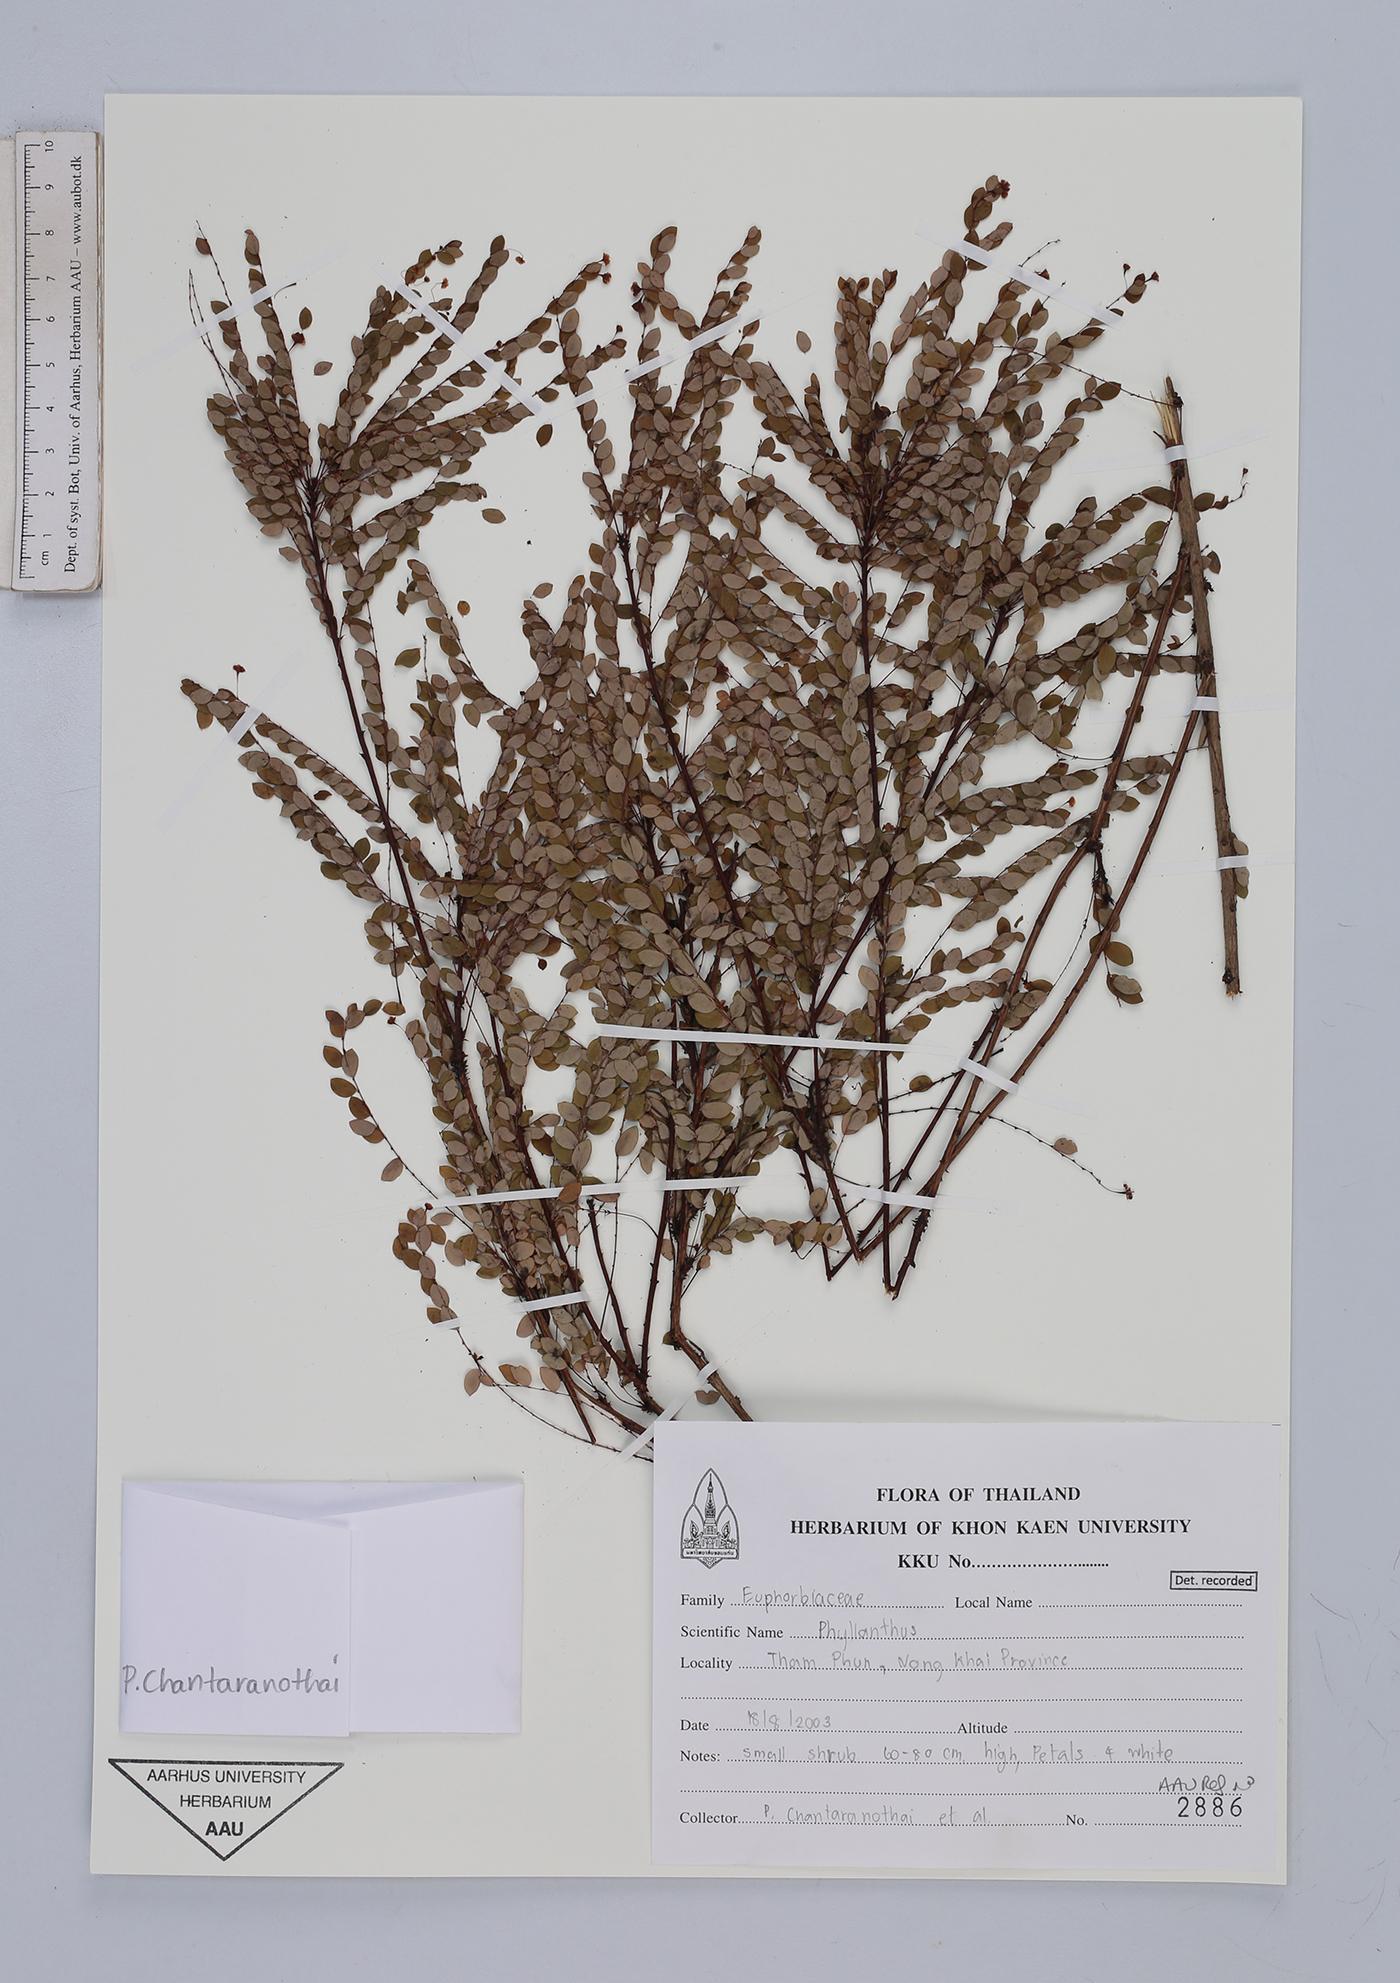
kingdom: Plantae
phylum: Tracheophyta
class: Magnoliopsida
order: Malpighiales
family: Euphorbiaceae
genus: Phyllanthos
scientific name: Phyllanthos
